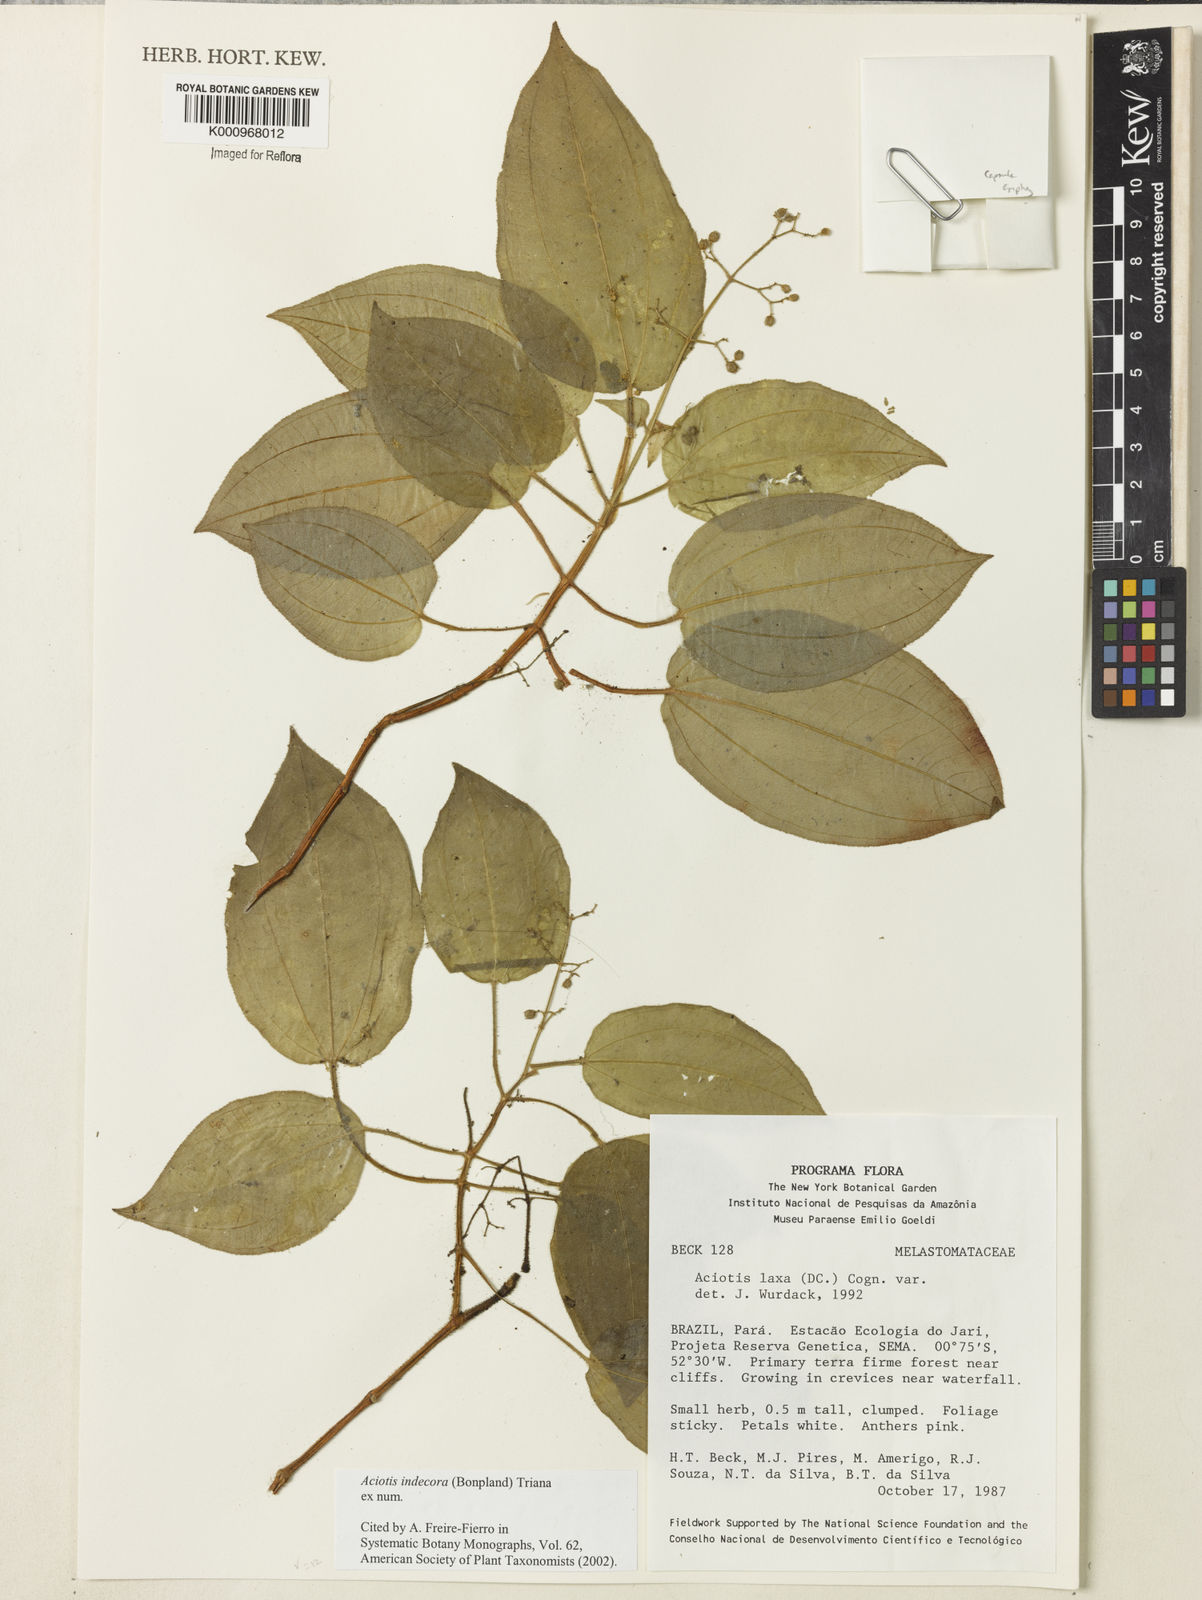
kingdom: Plantae
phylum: Tracheophyta
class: Magnoliopsida
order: Myrtales
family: Melastomataceae
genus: Aciotis
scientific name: Aciotis indecora
